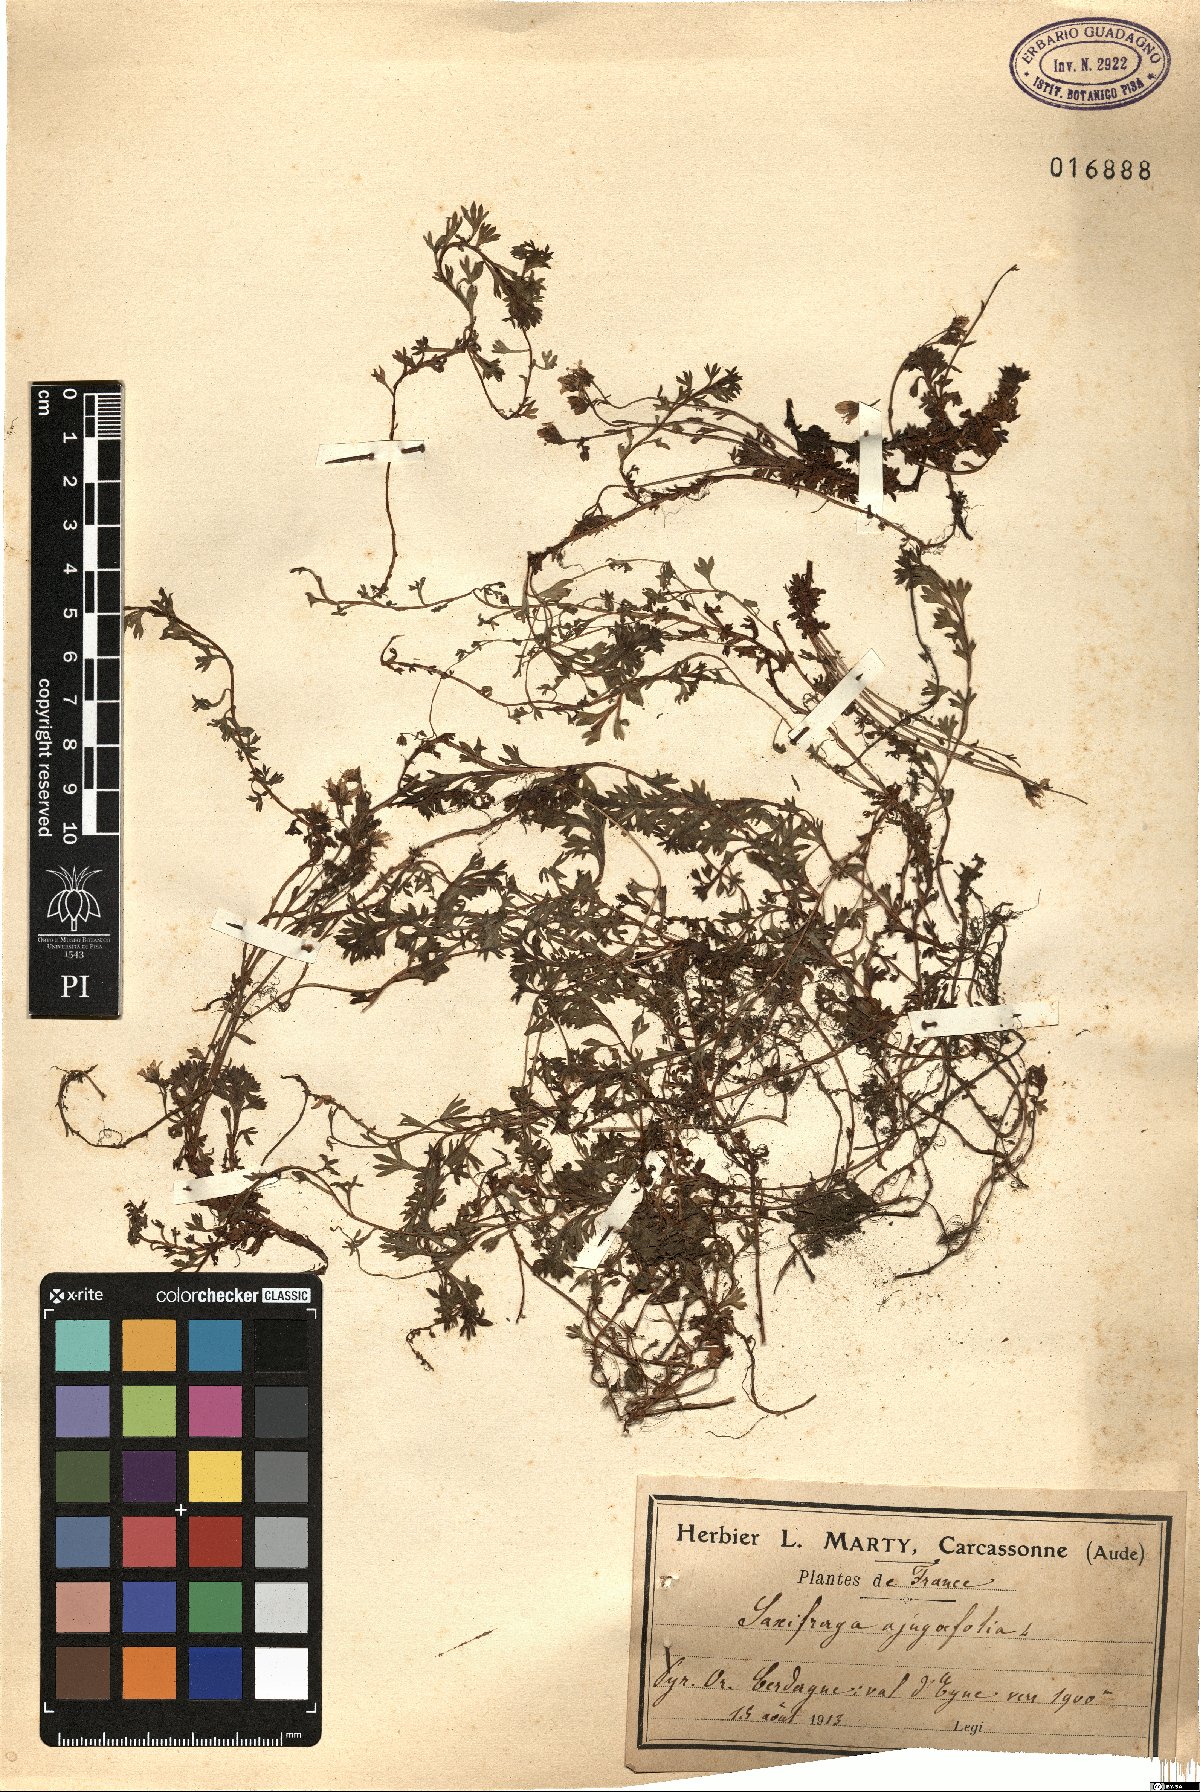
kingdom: Plantae
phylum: Tracheophyta
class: Magnoliopsida
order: Saxifragales
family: Saxifragaceae
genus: Saxifraga
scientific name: Saxifraga pedemontana
